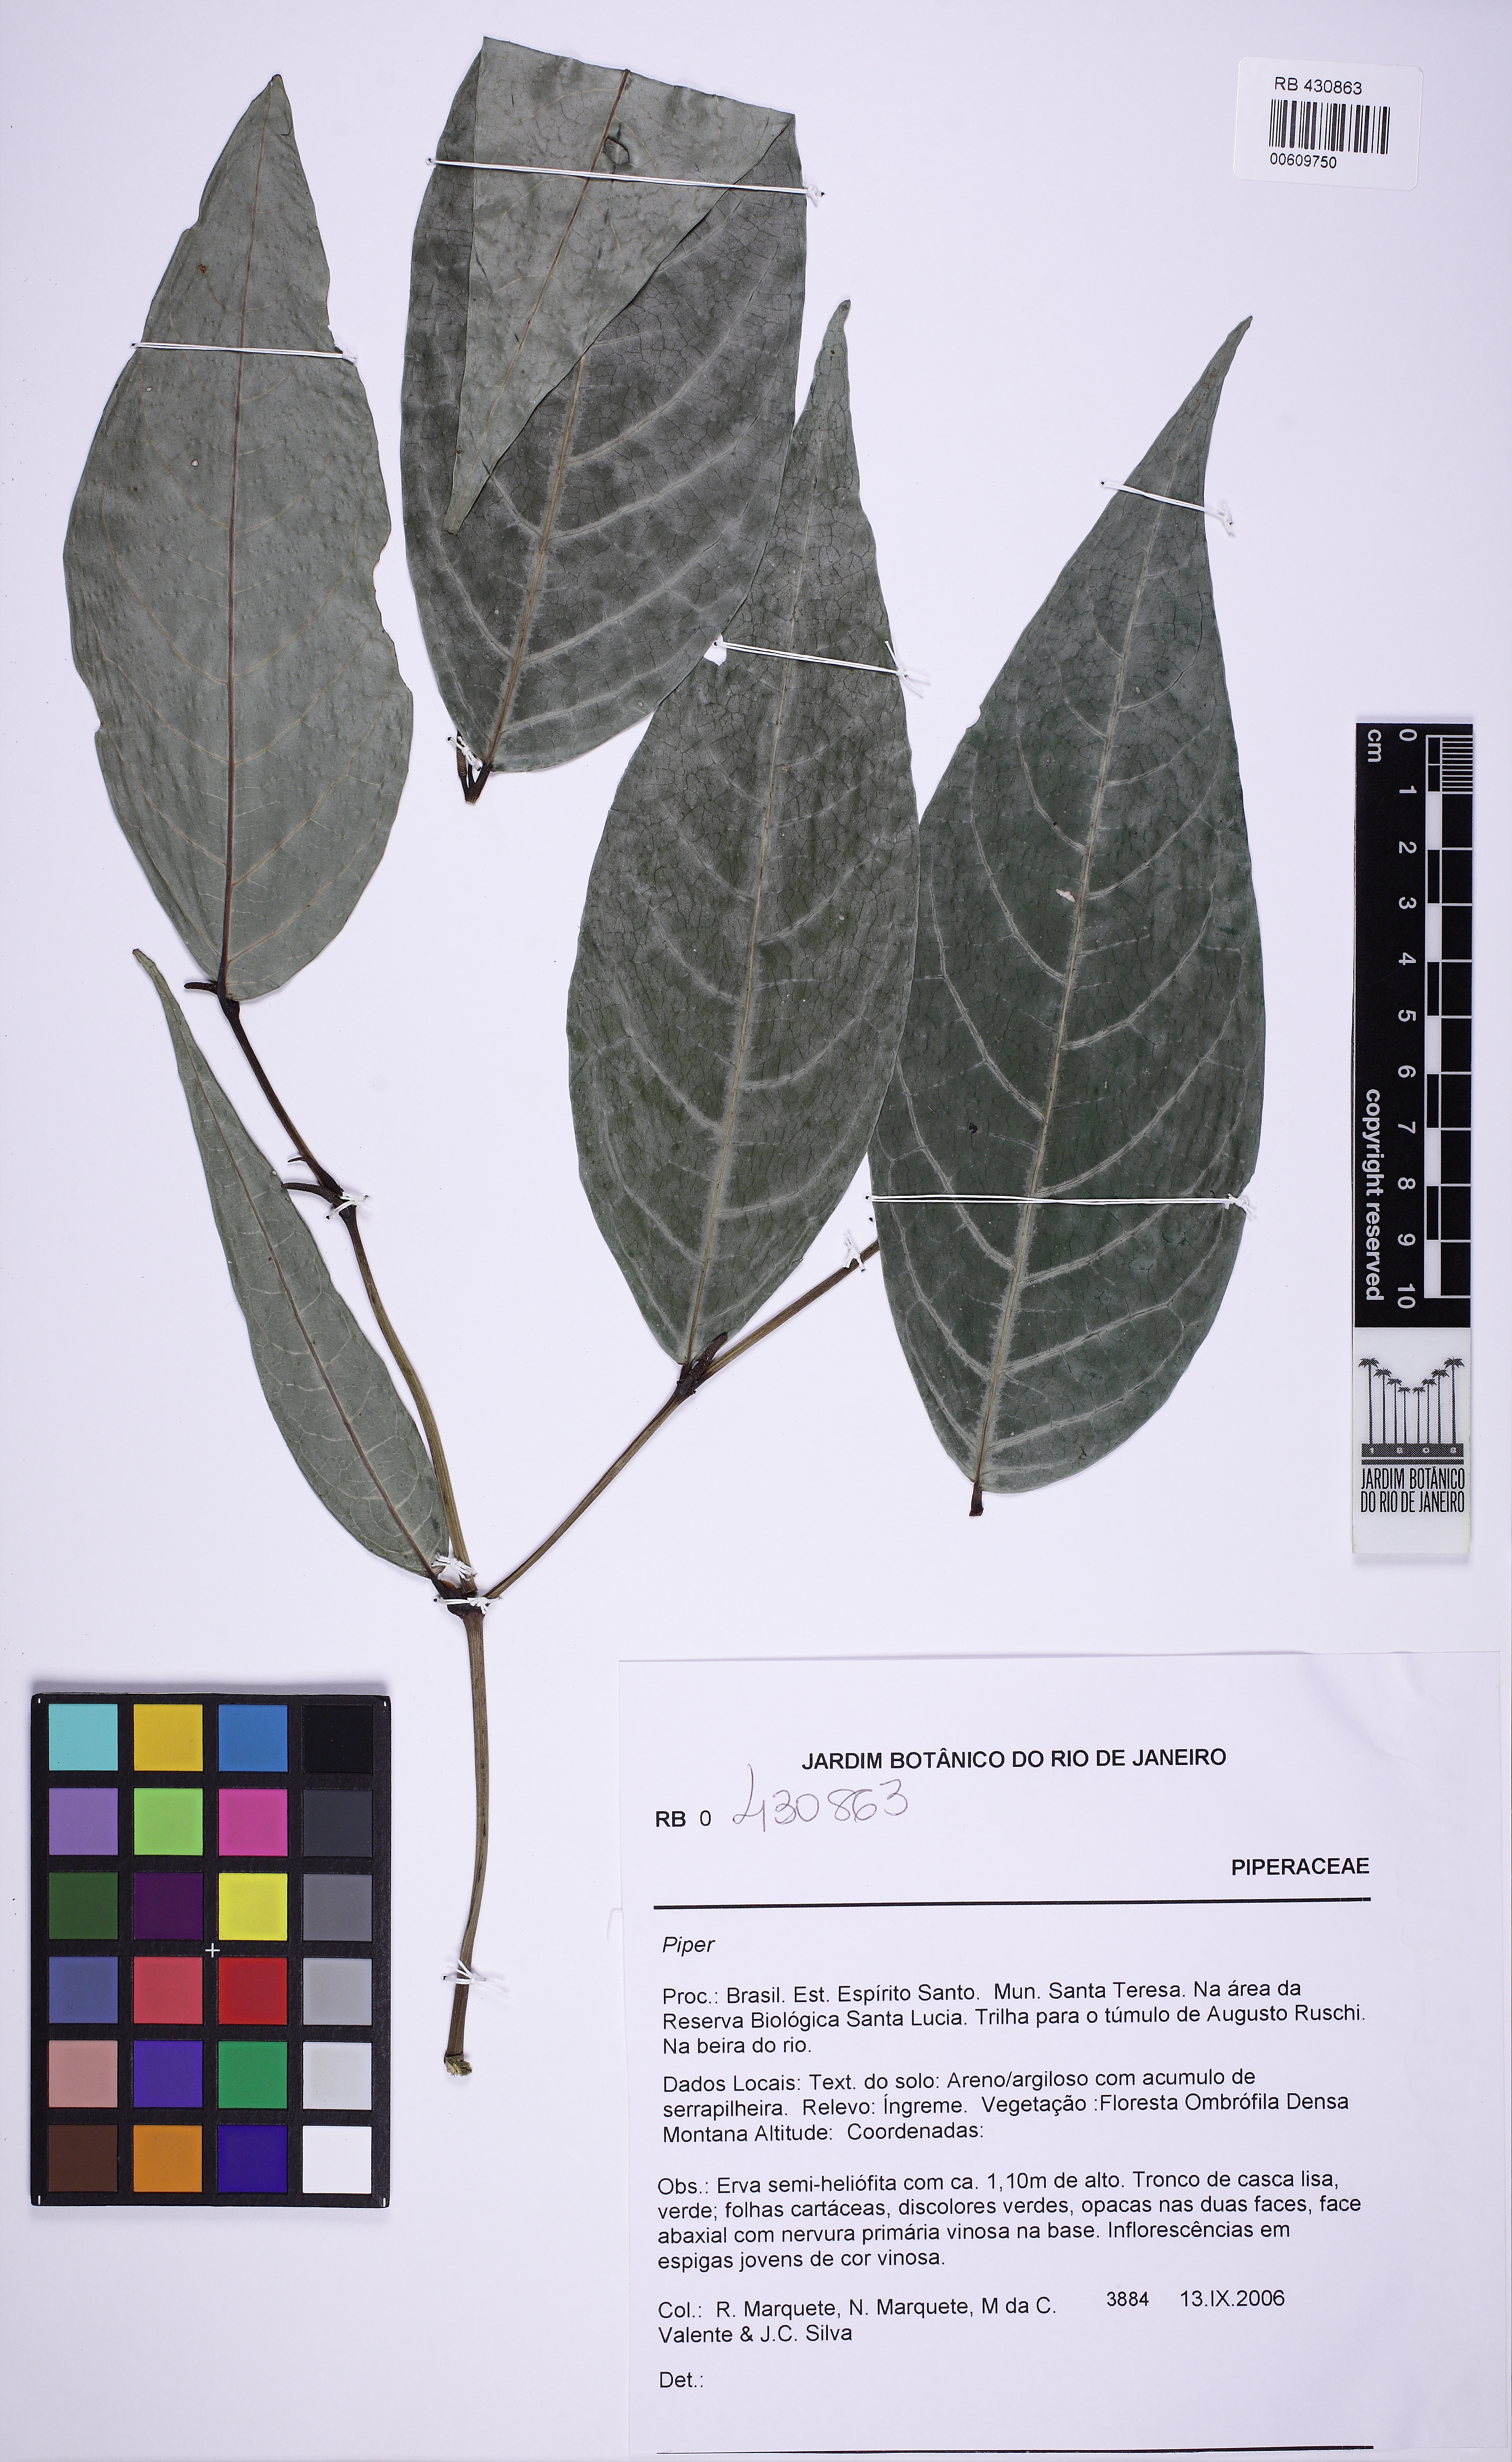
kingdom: Plantae
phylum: Tracheophyta
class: Magnoliopsida
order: Piperales
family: Piperaceae
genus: Piper
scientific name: Piper
